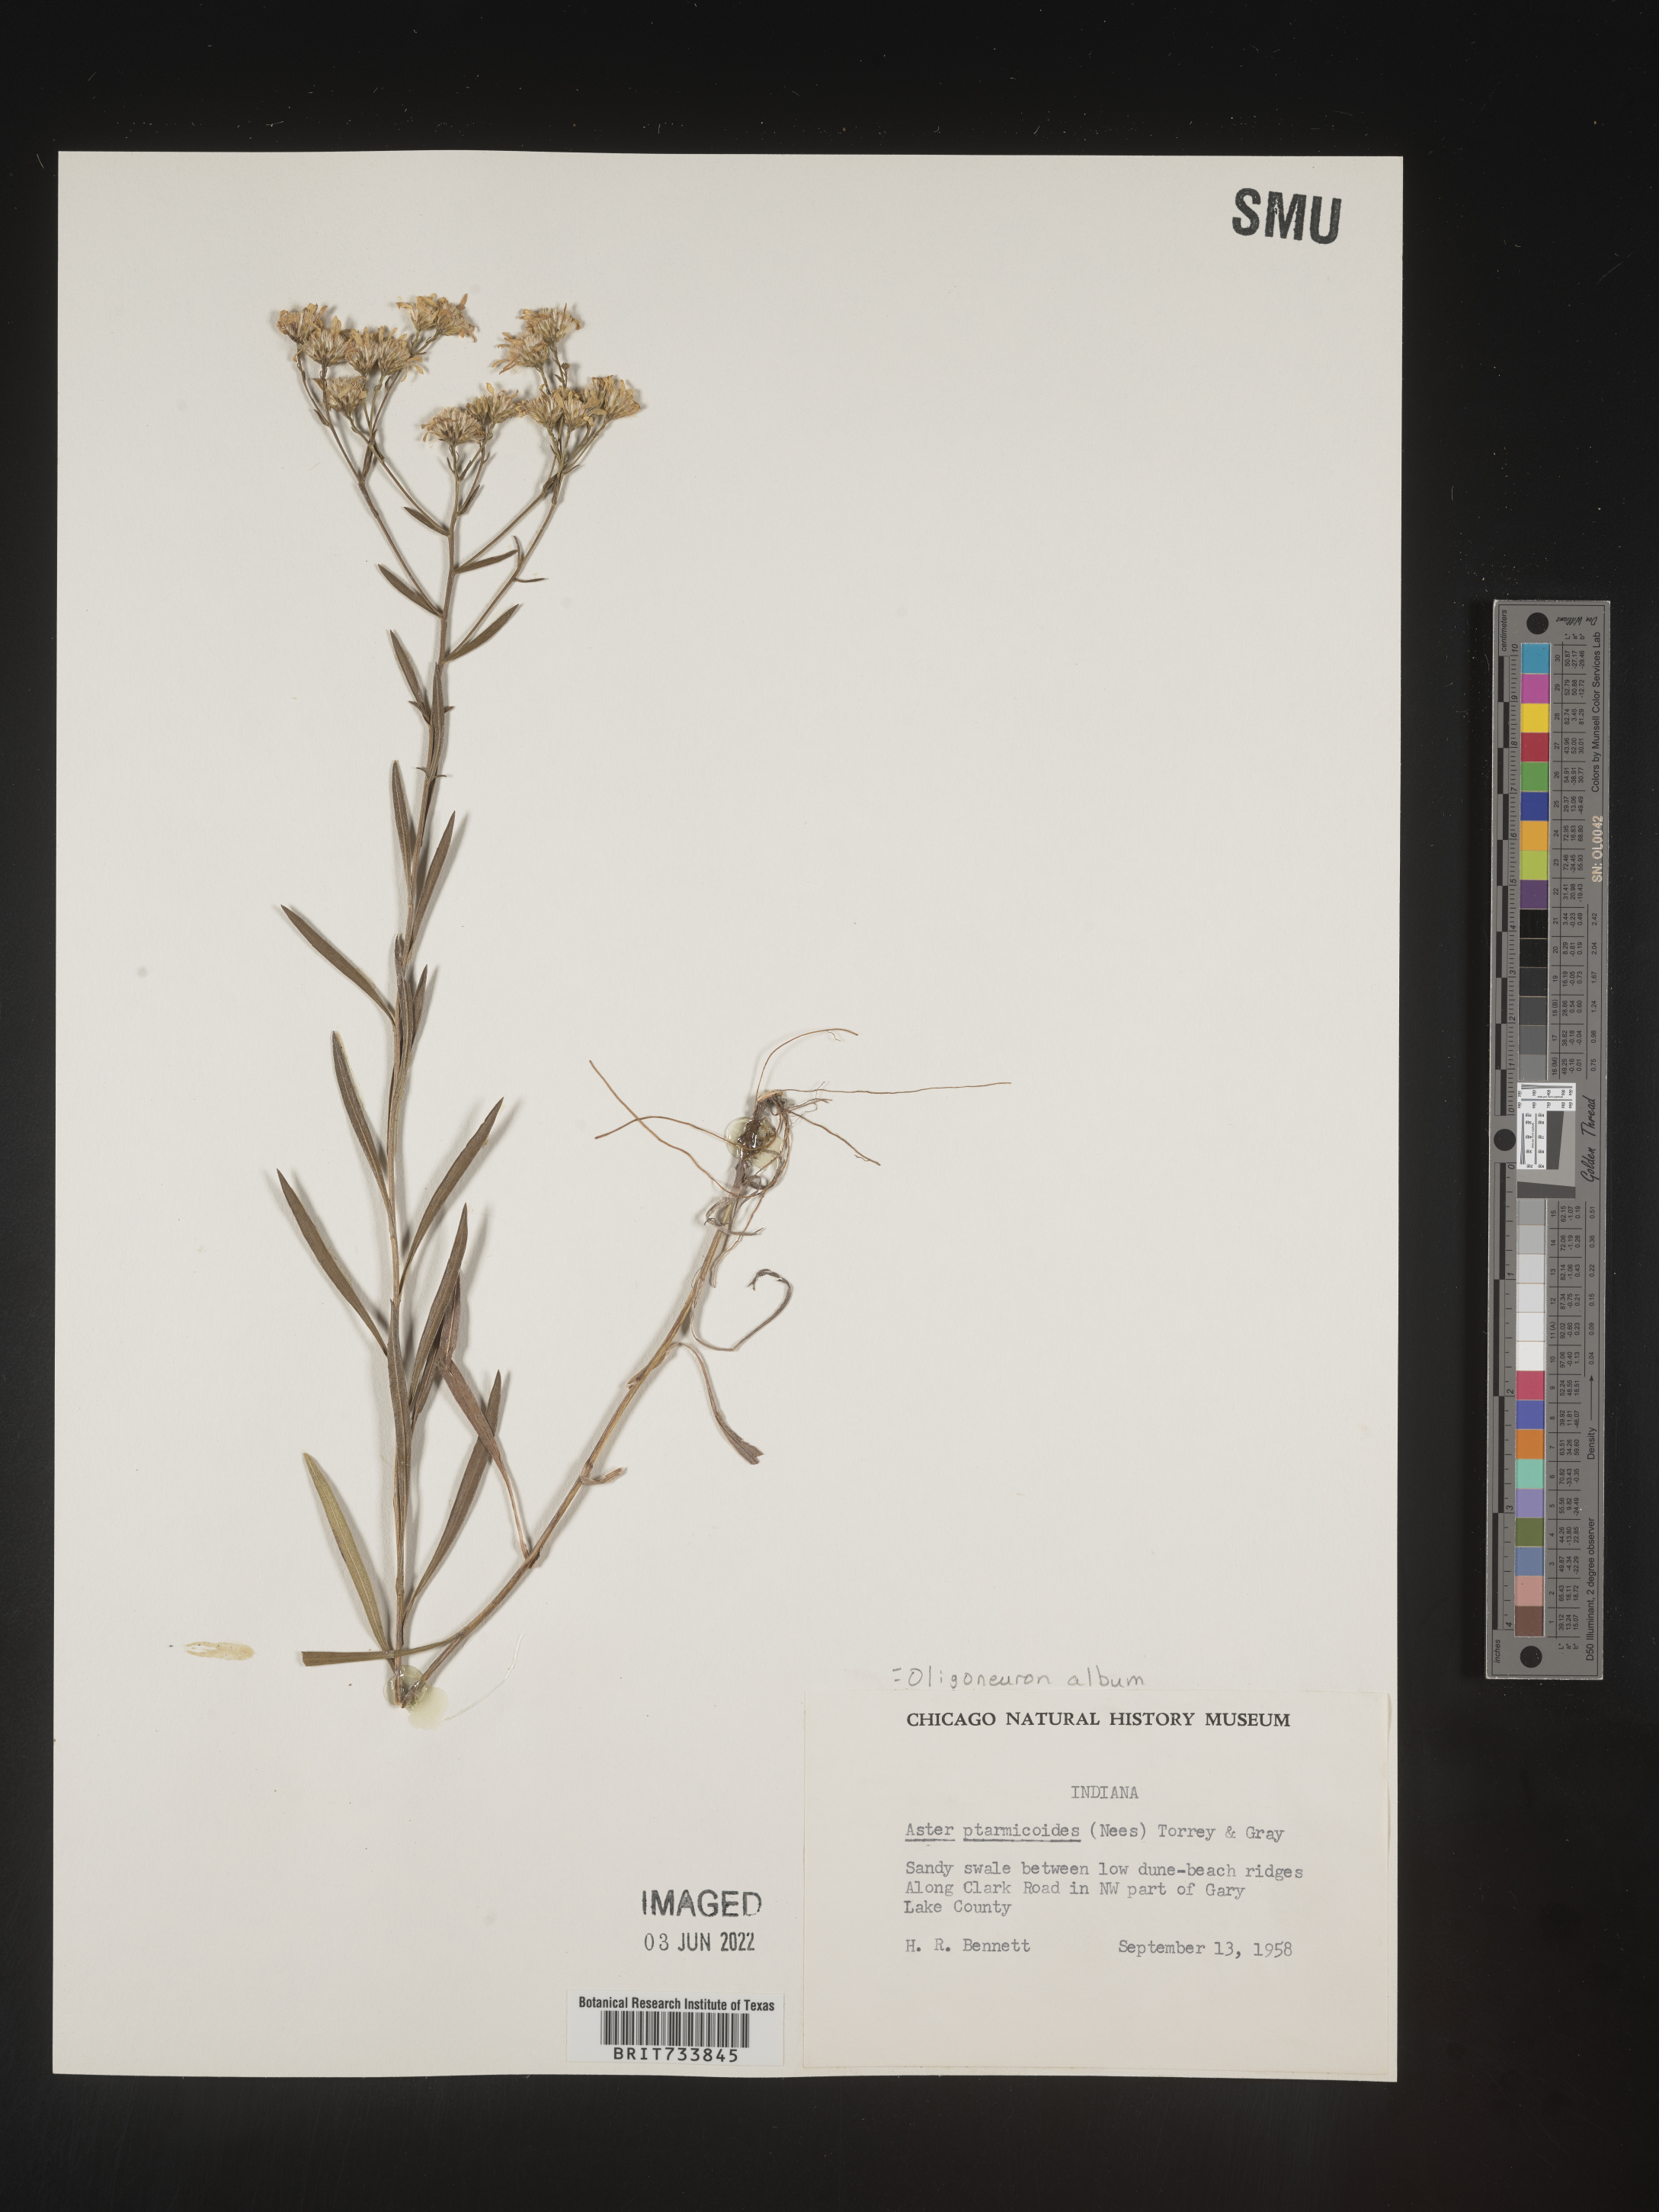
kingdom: Plantae
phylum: Tracheophyta
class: Magnoliopsida
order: Asterales
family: Asteraceae
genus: Solidago
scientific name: Solidago ptarmicoides
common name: White flat-top goldenrod
